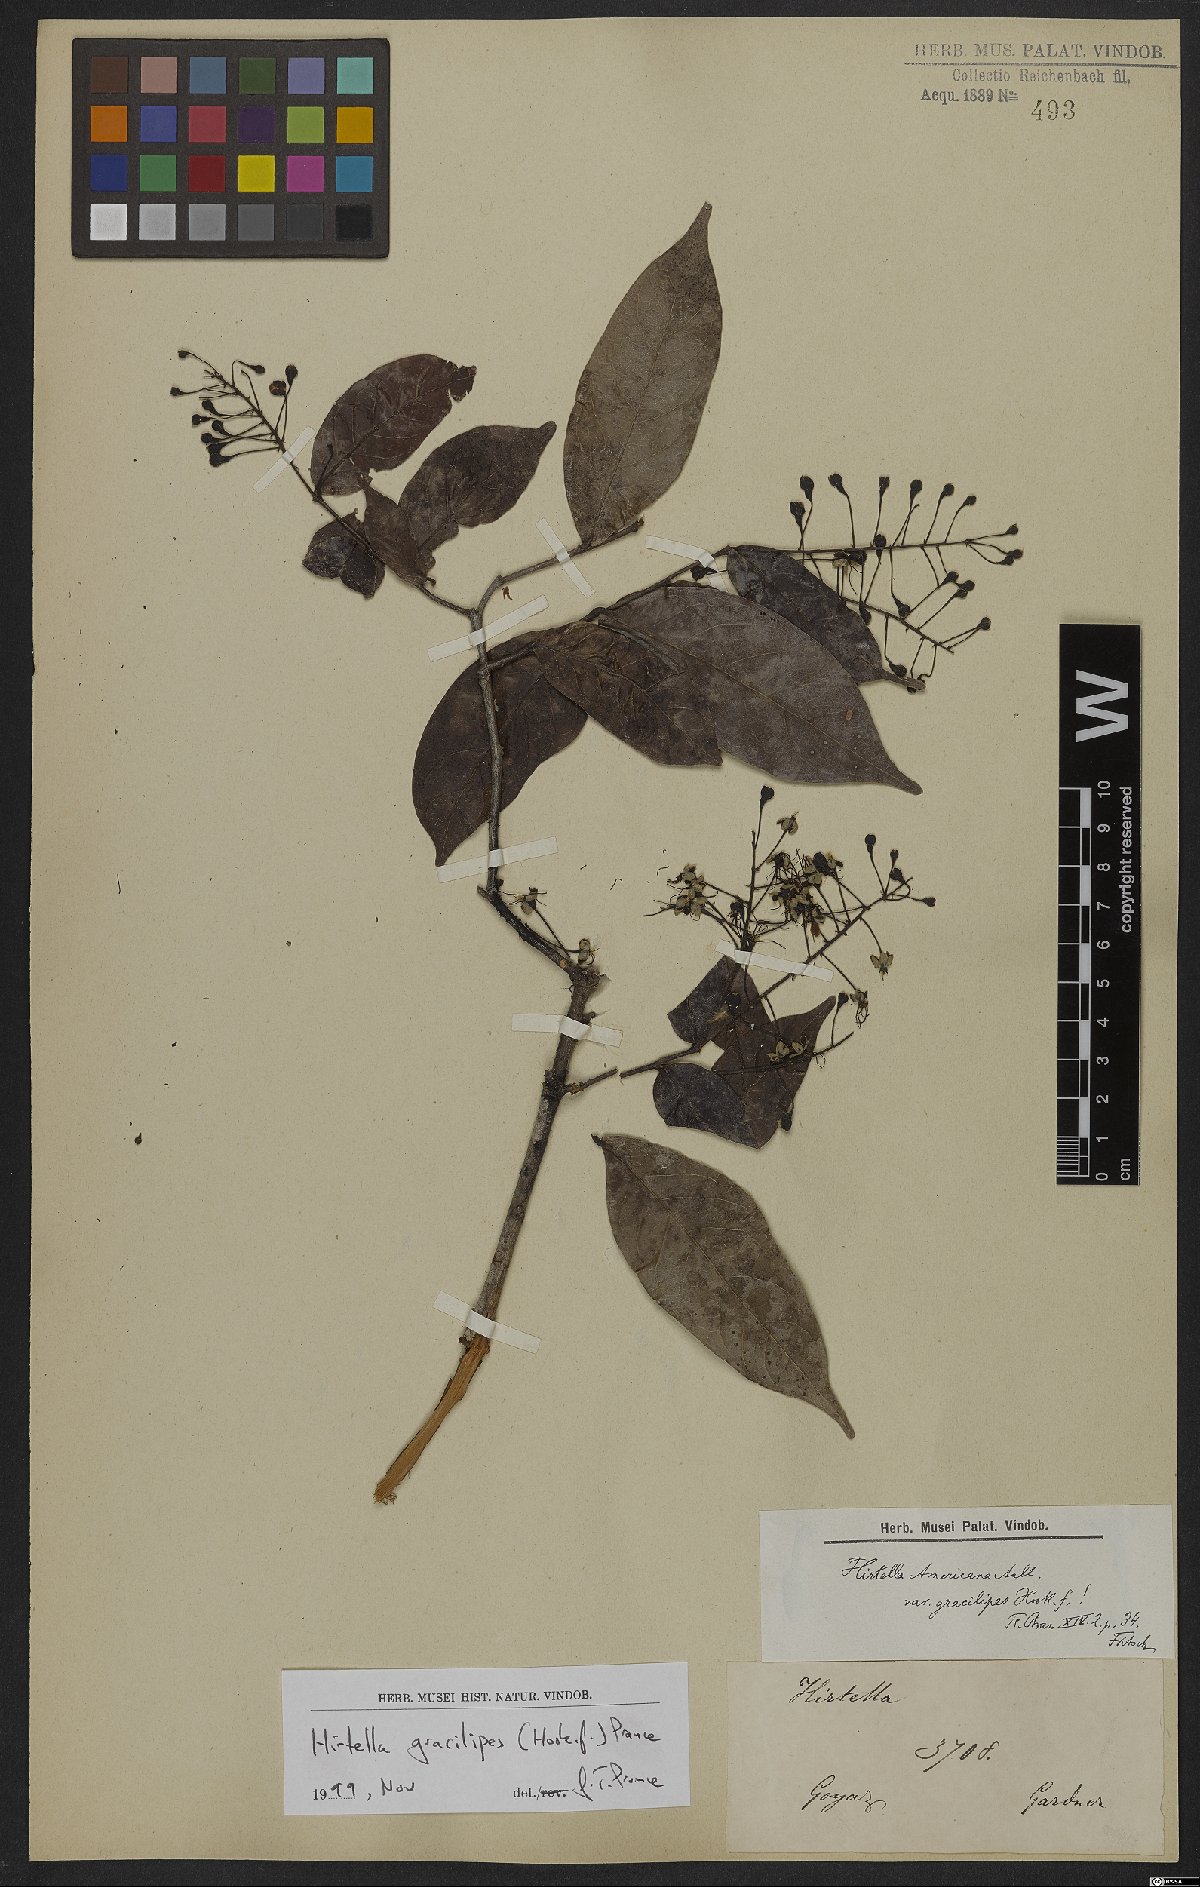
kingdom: Plantae
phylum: Tracheophyta
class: Magnoliopsida
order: Malpighiales
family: Chrysobalanaceae
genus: Hirtella
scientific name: Hirtella gracilipes
